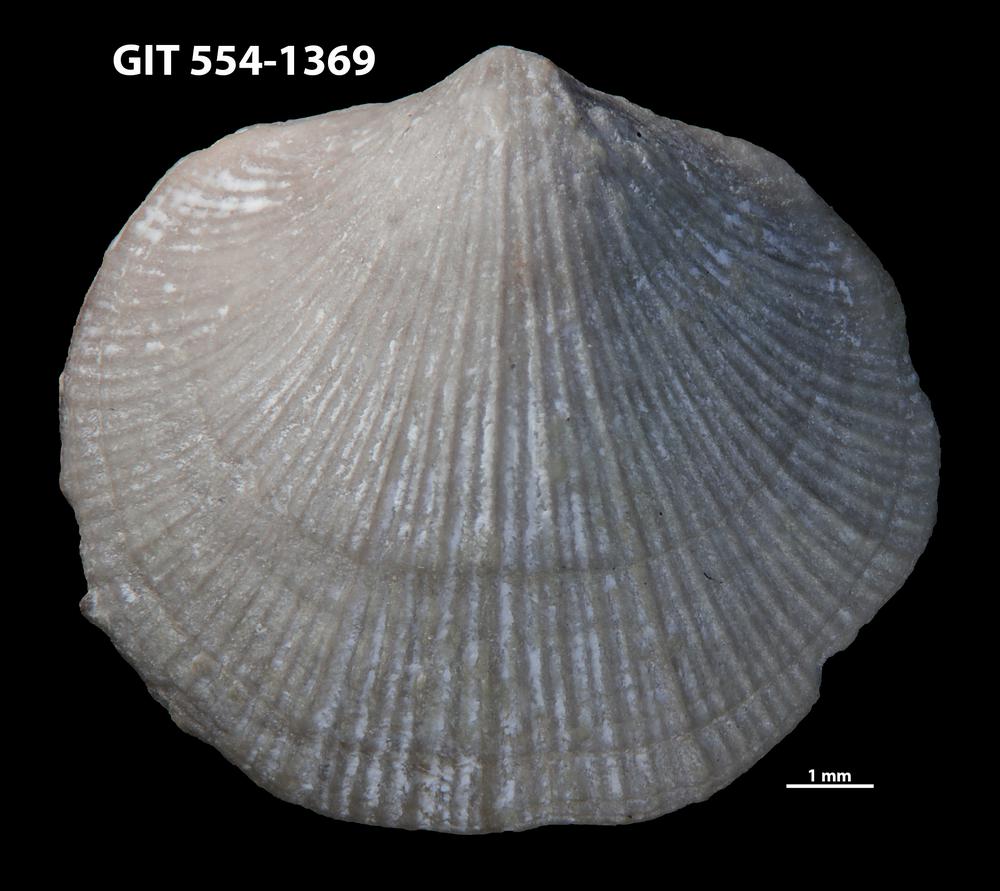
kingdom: Animalia
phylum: Brachiopoda
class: Rhynchonellata
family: Dalmanellidae
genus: Dalmanella
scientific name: Dalmanella cyclica
